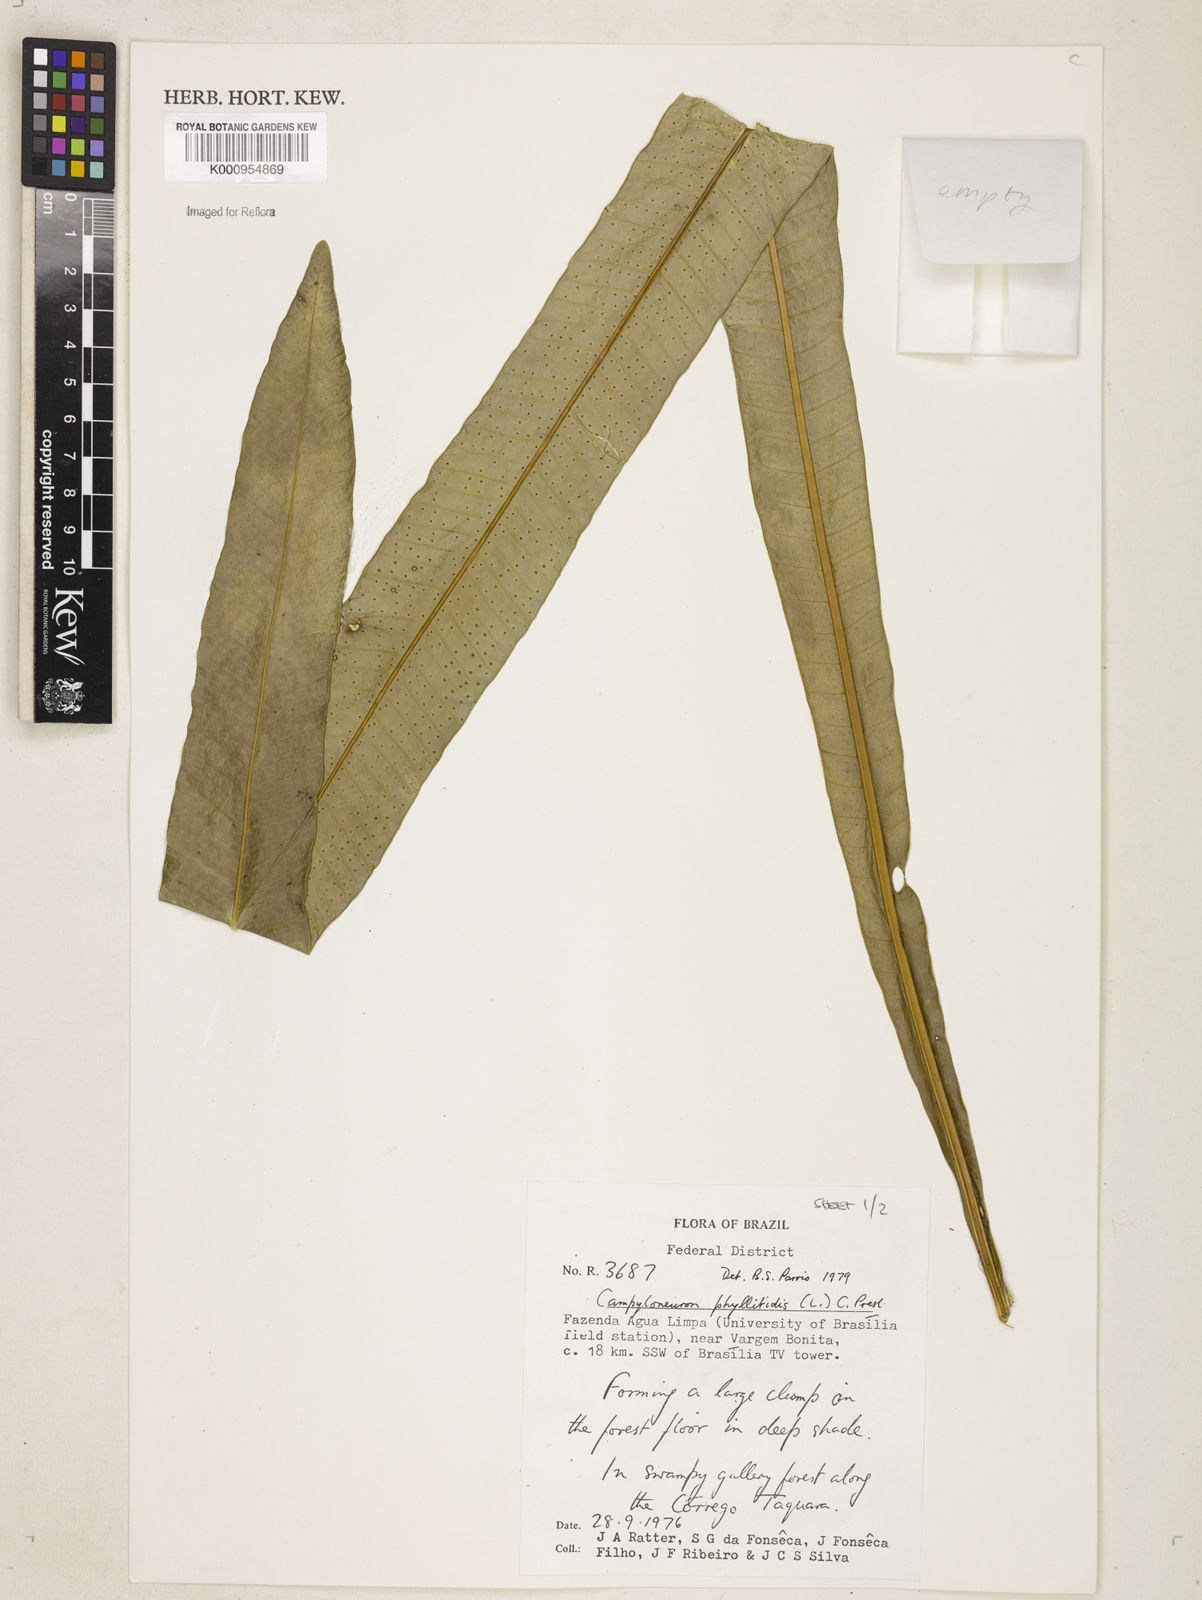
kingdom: Plantae
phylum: Tracheophyta
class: Polypodiopsida
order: Polypodiales
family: Polypodiaceae
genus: Campyloneurum
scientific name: Campyloneurum phyllitidis
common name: Cow-tongue fern
